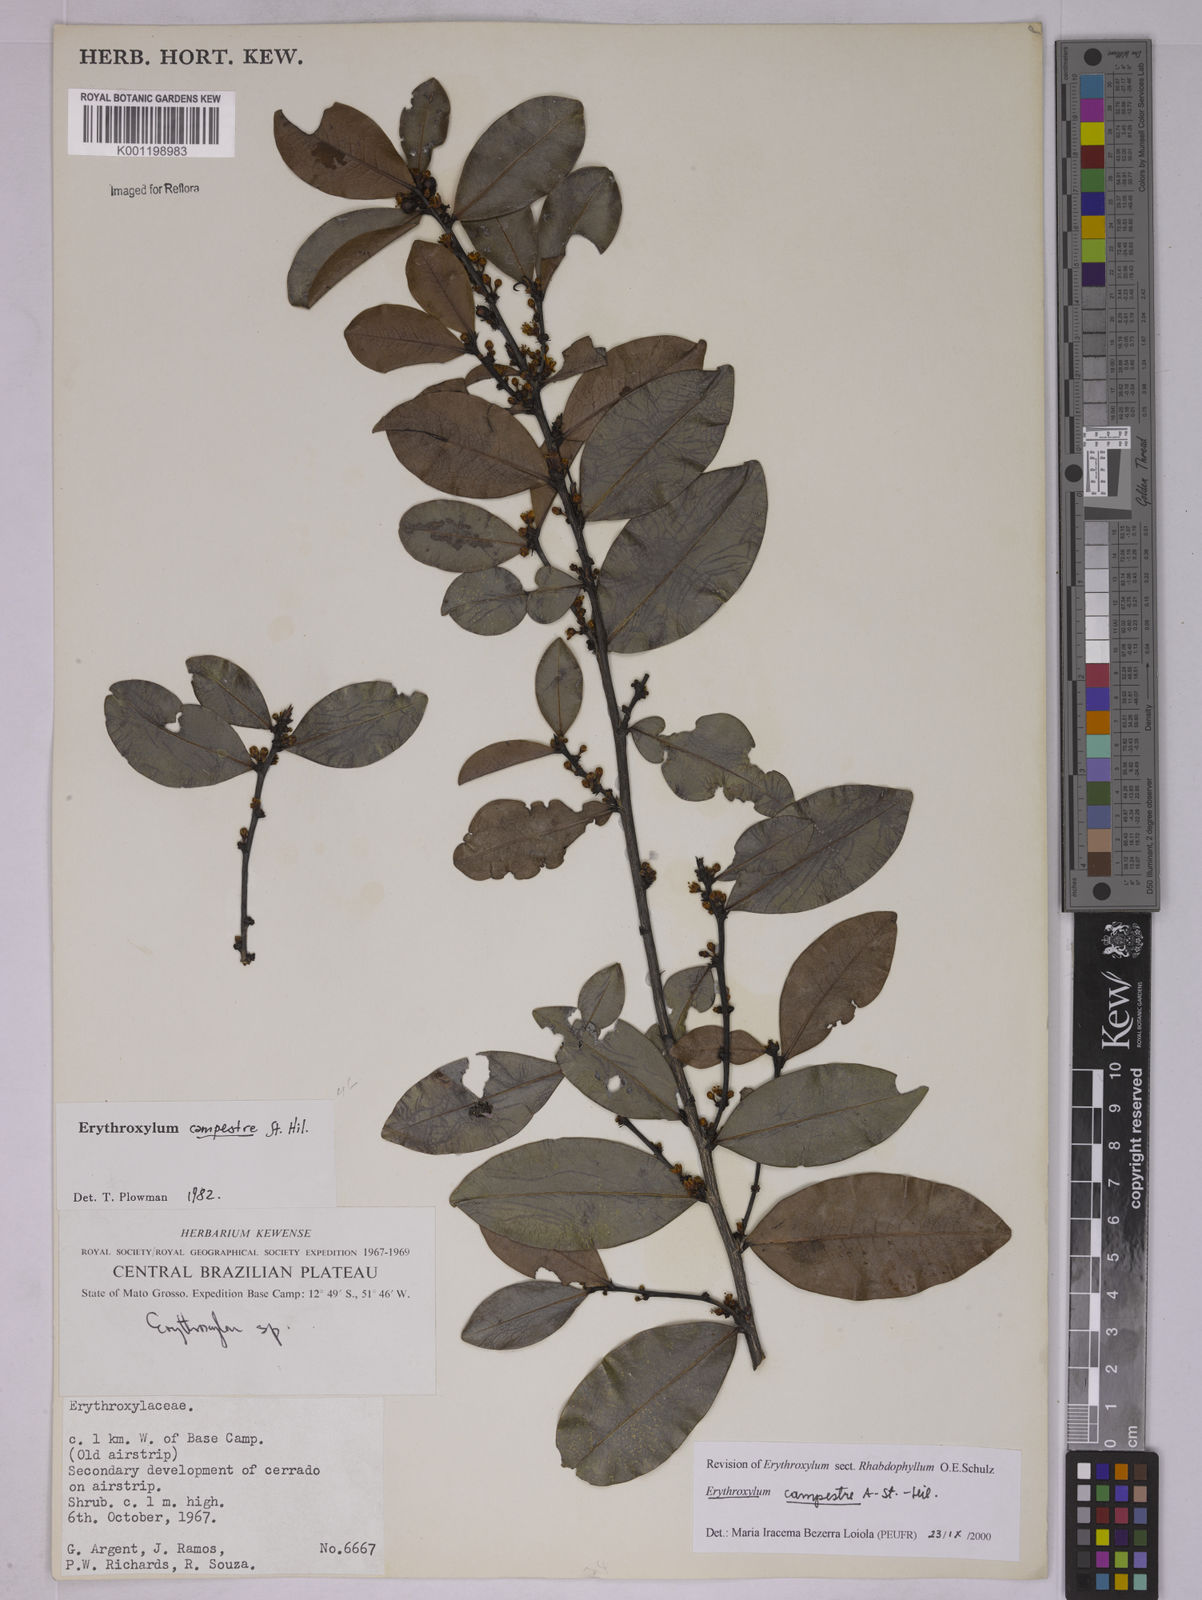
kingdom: Plantae
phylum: Tracheophyta
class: Magnoliopsida
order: Malpighiales
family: Erythroxylaceae
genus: Erythroxylum
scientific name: Erythroxylum campestre
